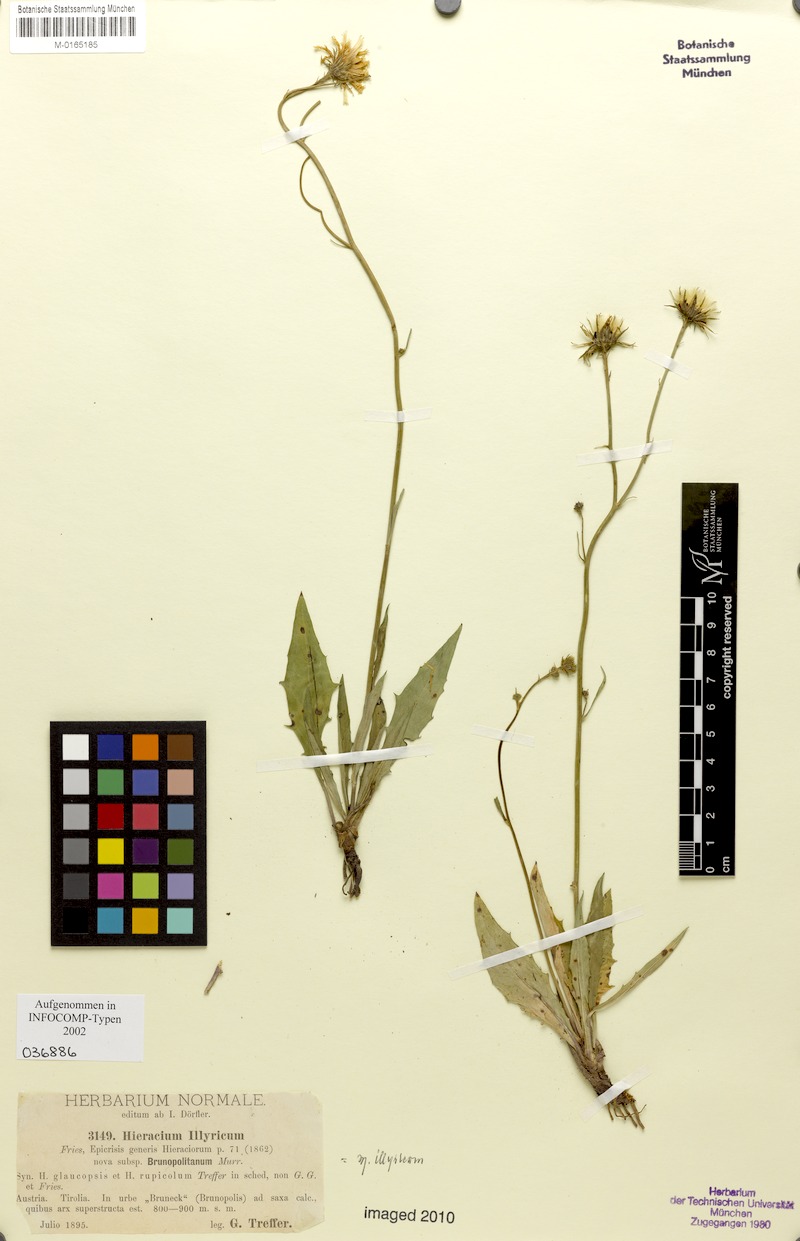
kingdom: Plantae
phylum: Tracheophyta
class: Magnoliopsida
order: Asterales
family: Asteraceae
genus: Hieracium
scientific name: Hieracium calcareum
